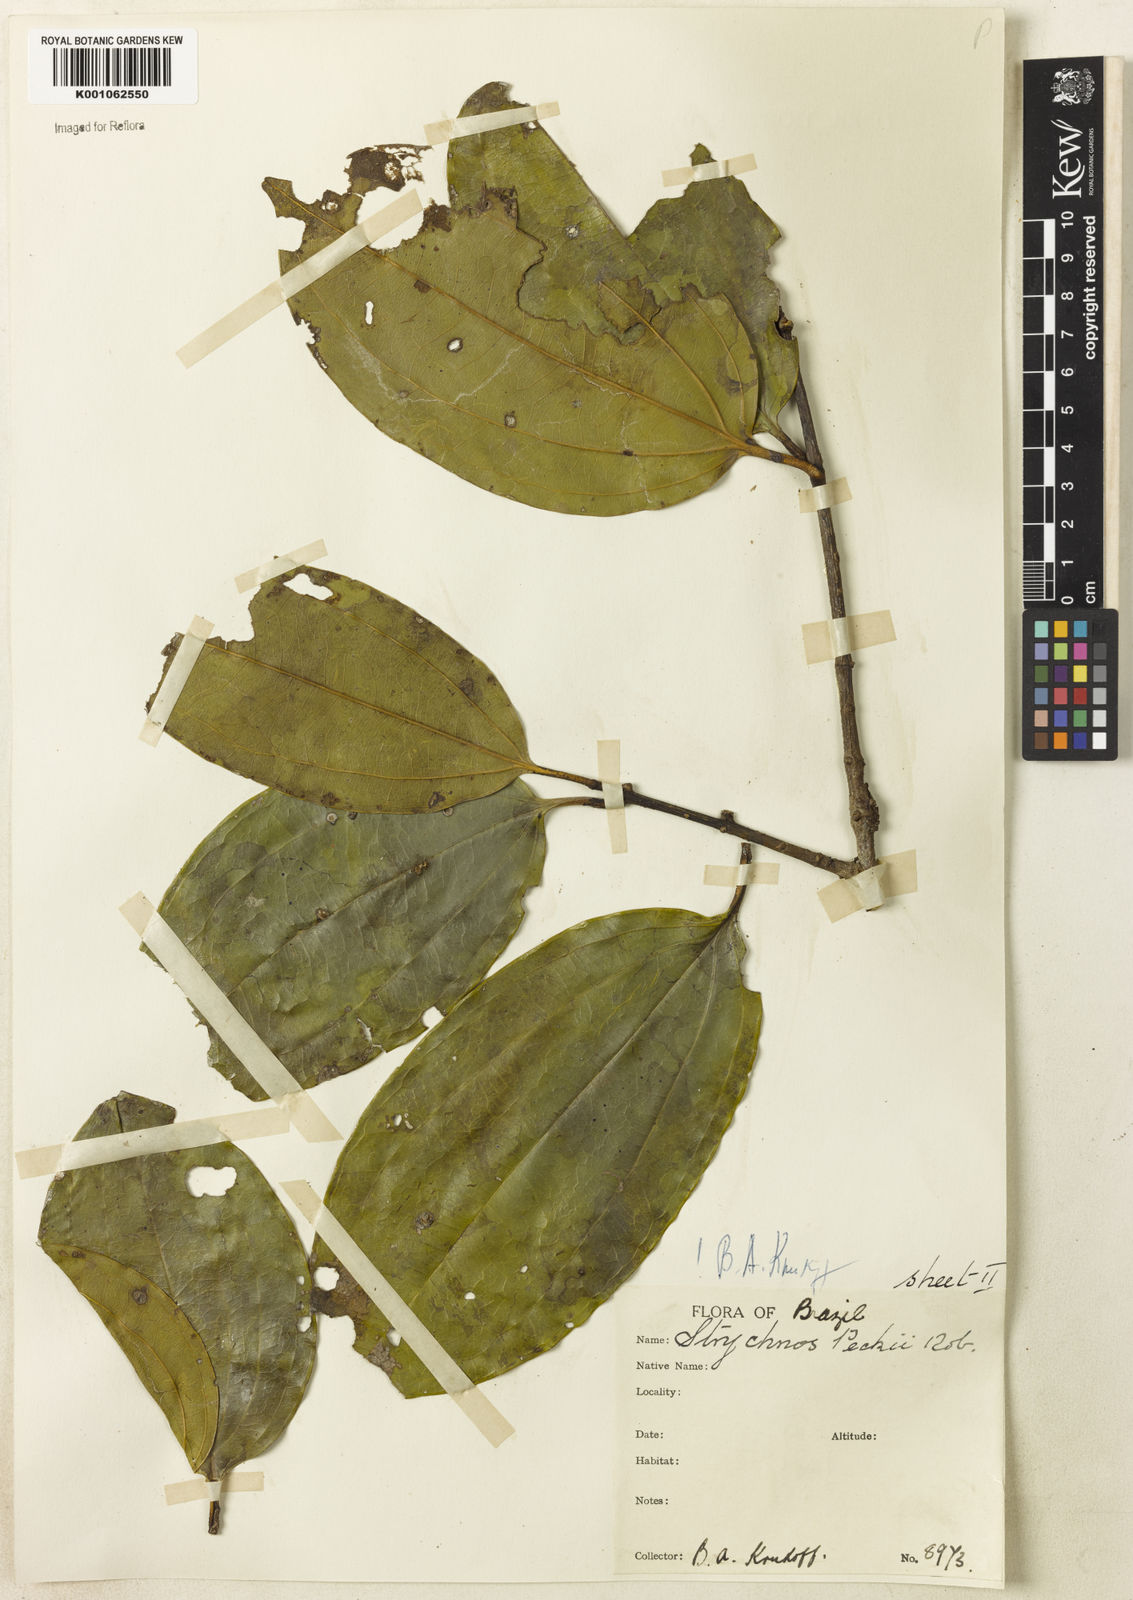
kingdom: Plantae
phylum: Tracheophyta
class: Magnoliopsida
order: Gentianales
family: Loganiaceae
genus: Strychnos
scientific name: Strychnos peckii
